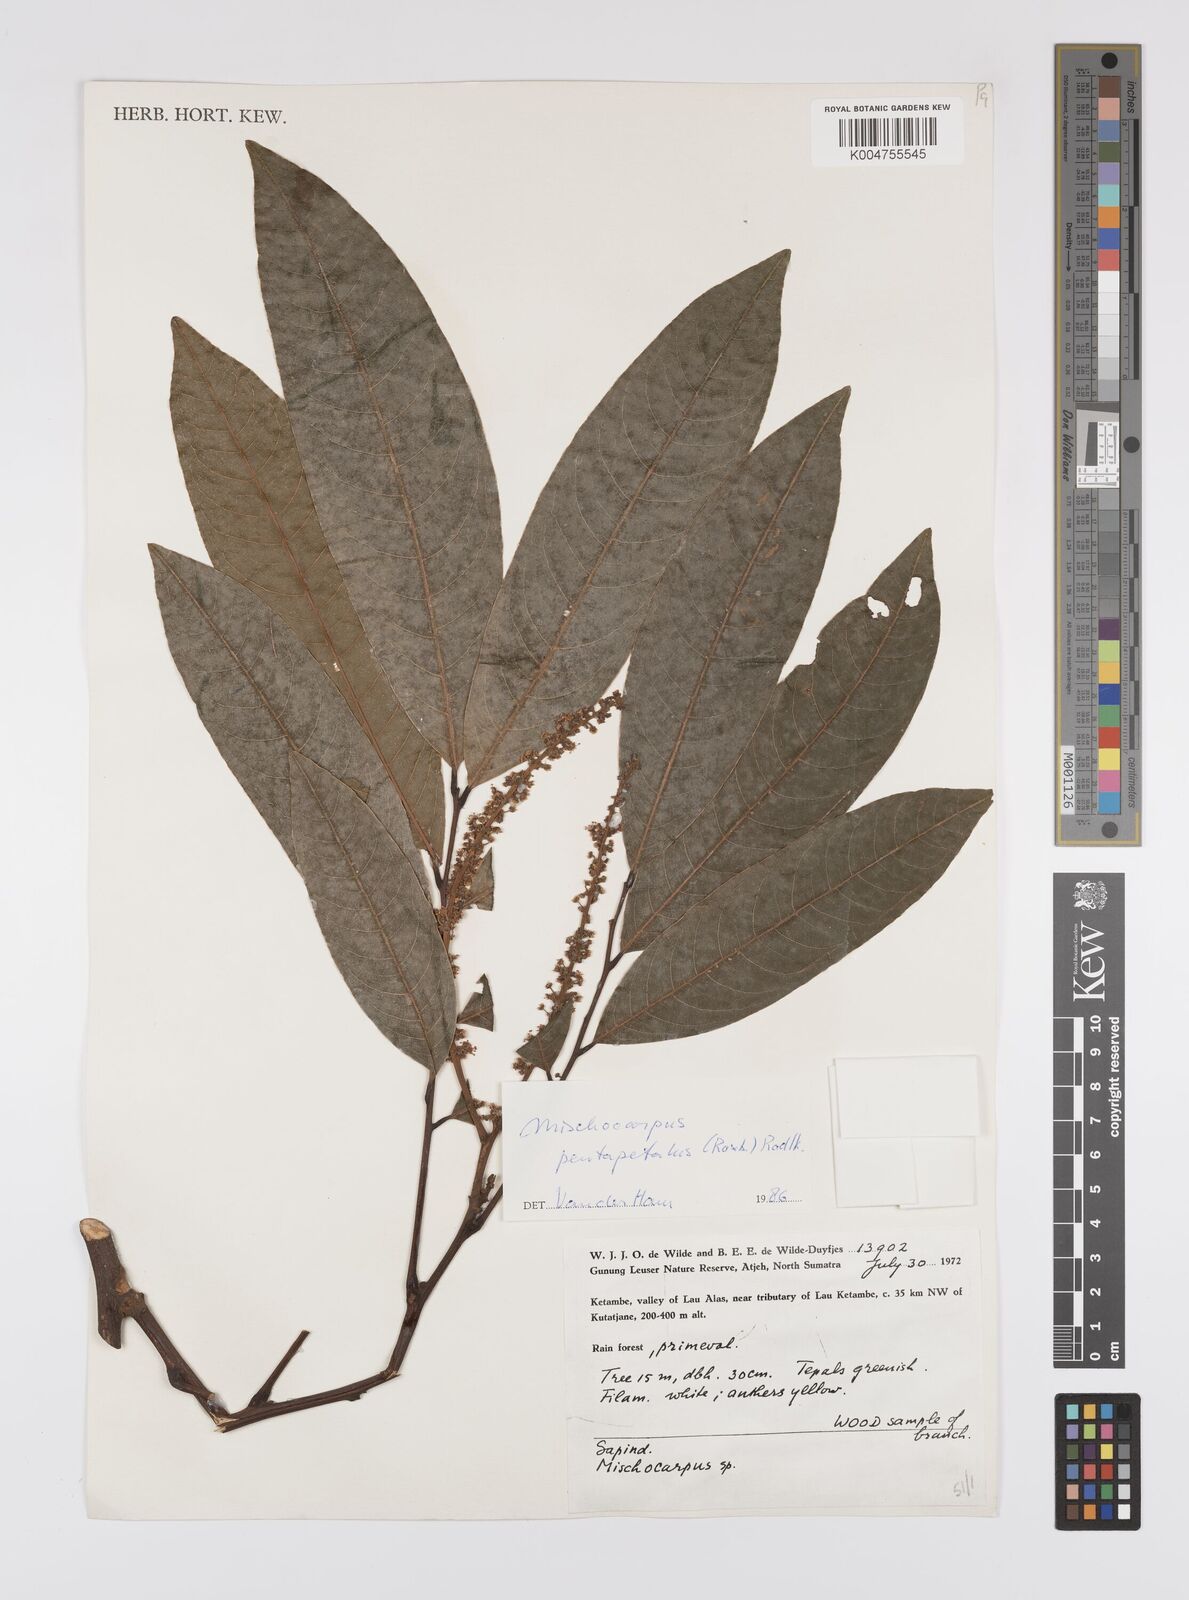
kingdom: Plantae
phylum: Tracheophyta
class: Magnoliopsida
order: Sapindales
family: Sapindaceae
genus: Mischocarpus
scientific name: Mischocarpus pentapetalus
